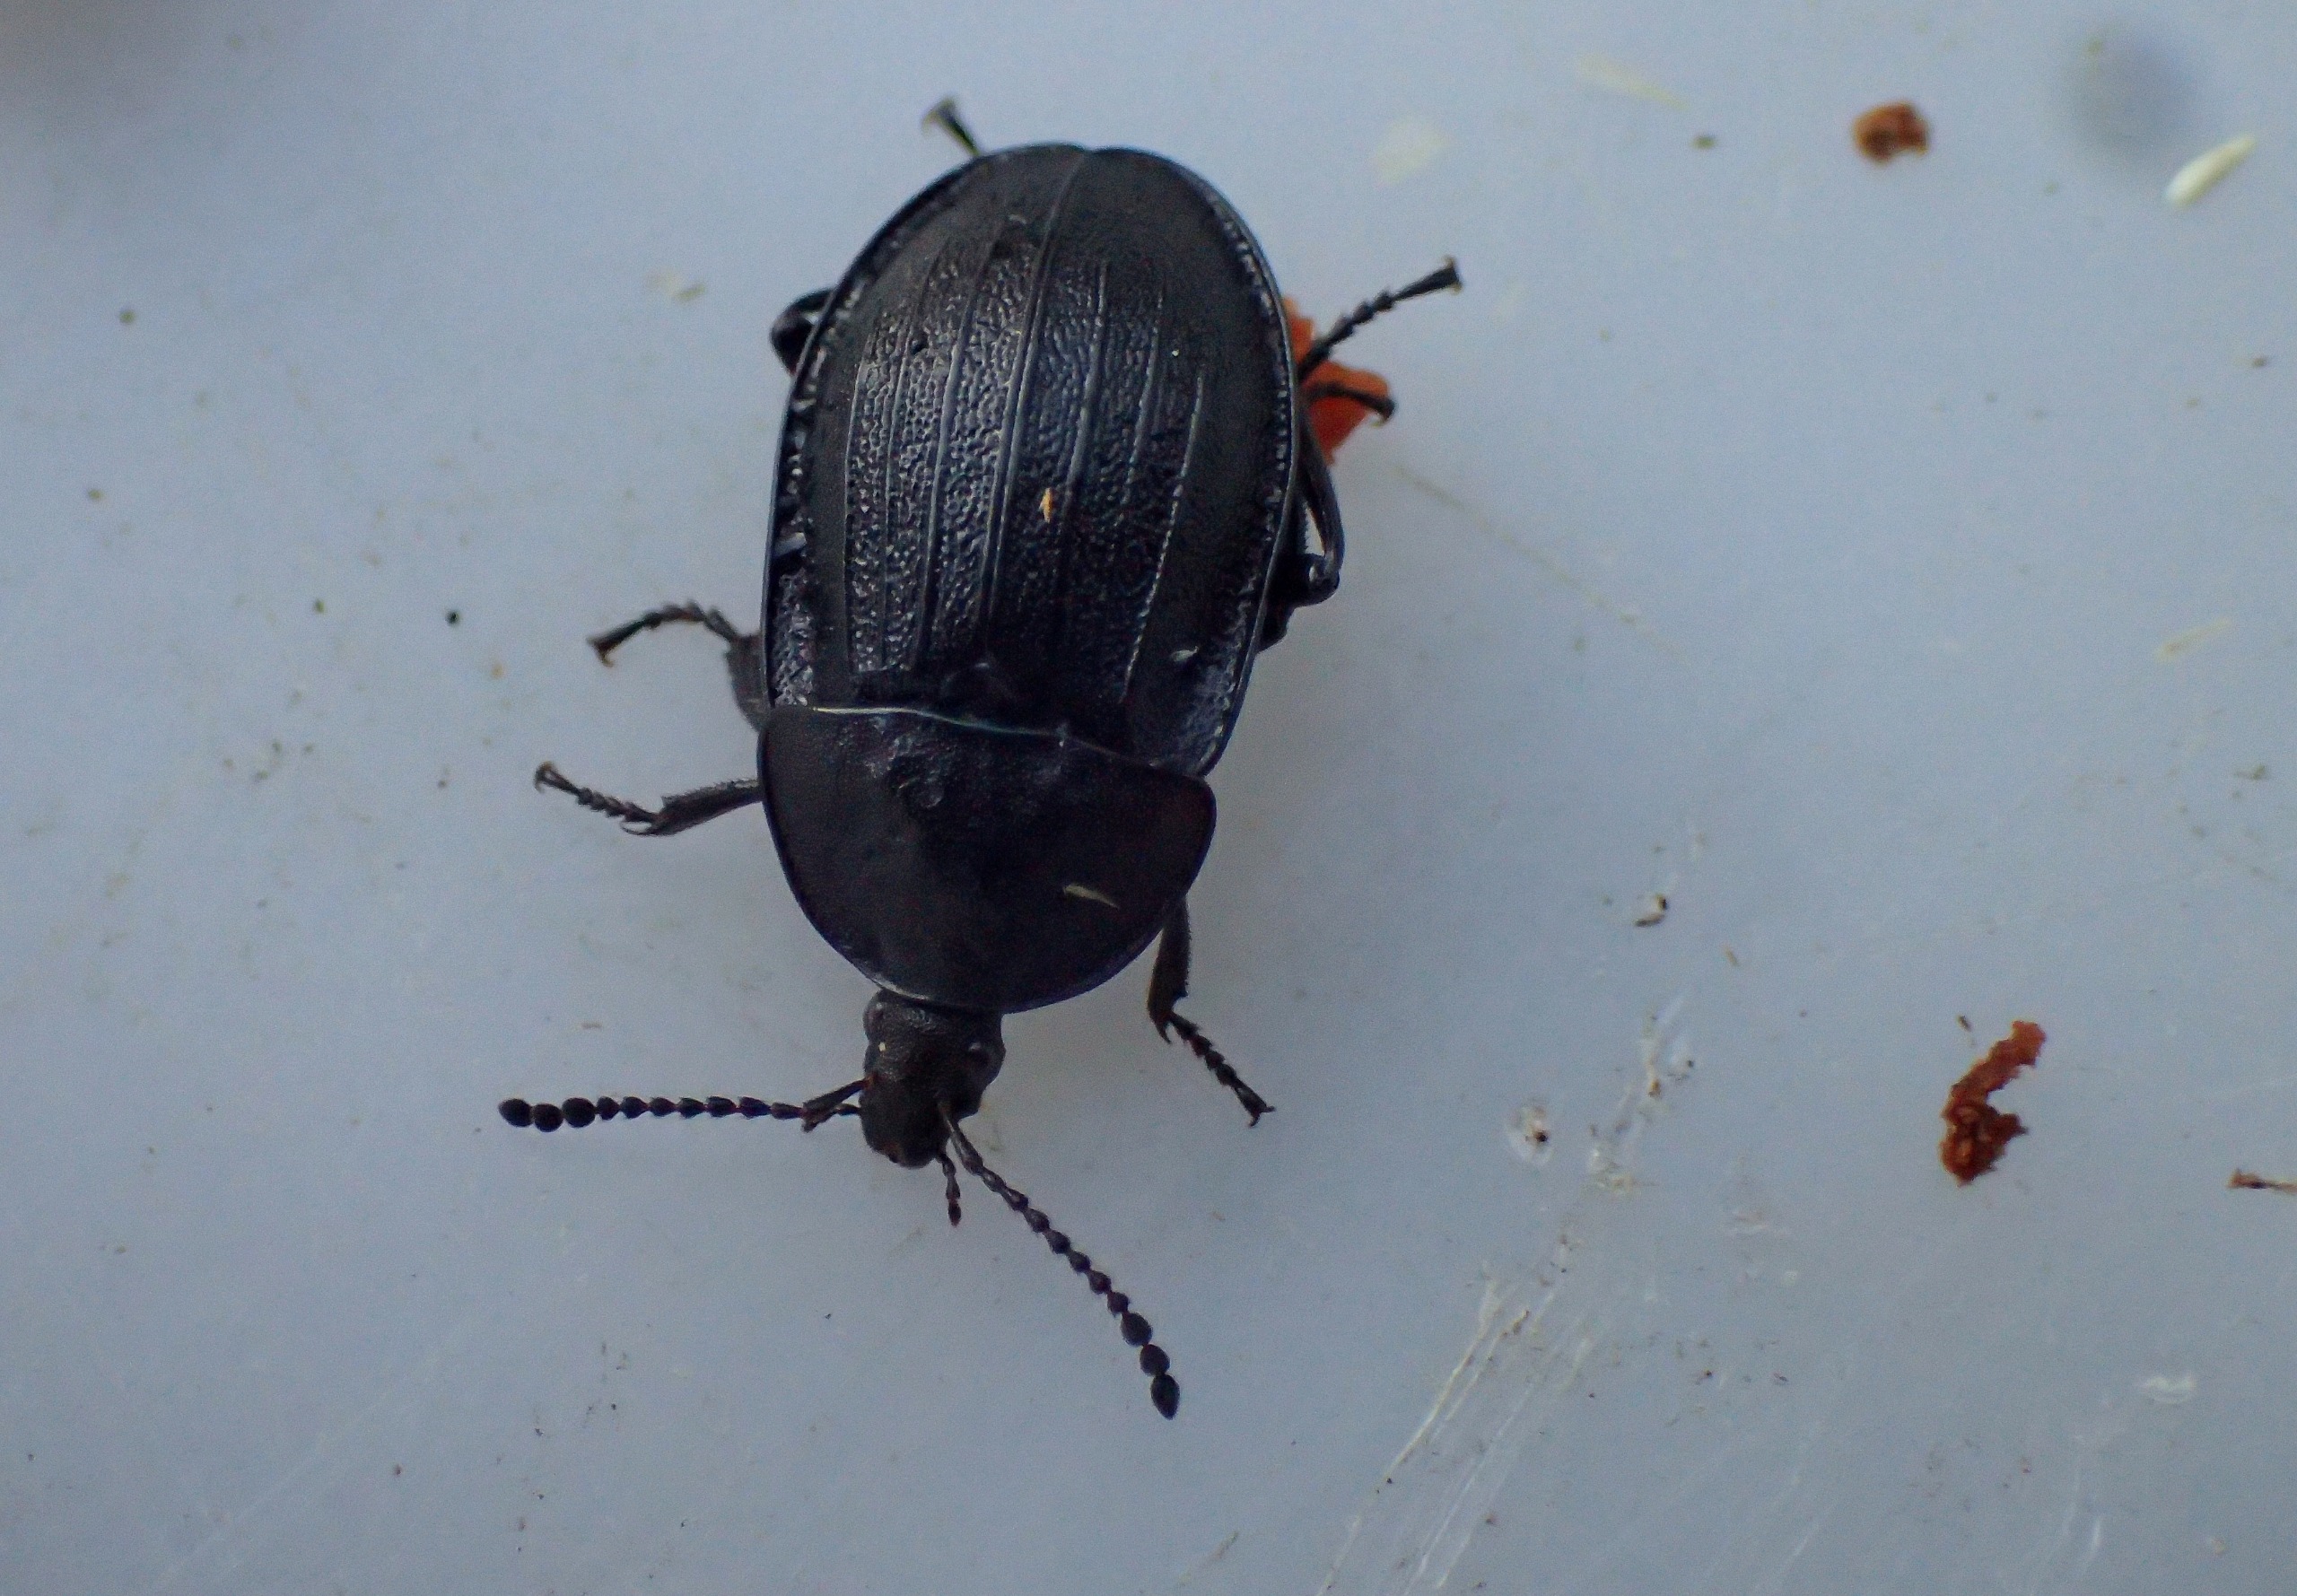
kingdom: Animalia
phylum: Arthropoda
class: Insecta
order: Coleoptera
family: Staphylinidae
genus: Silpha
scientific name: Silpha atrata
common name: Snegleådselbille
